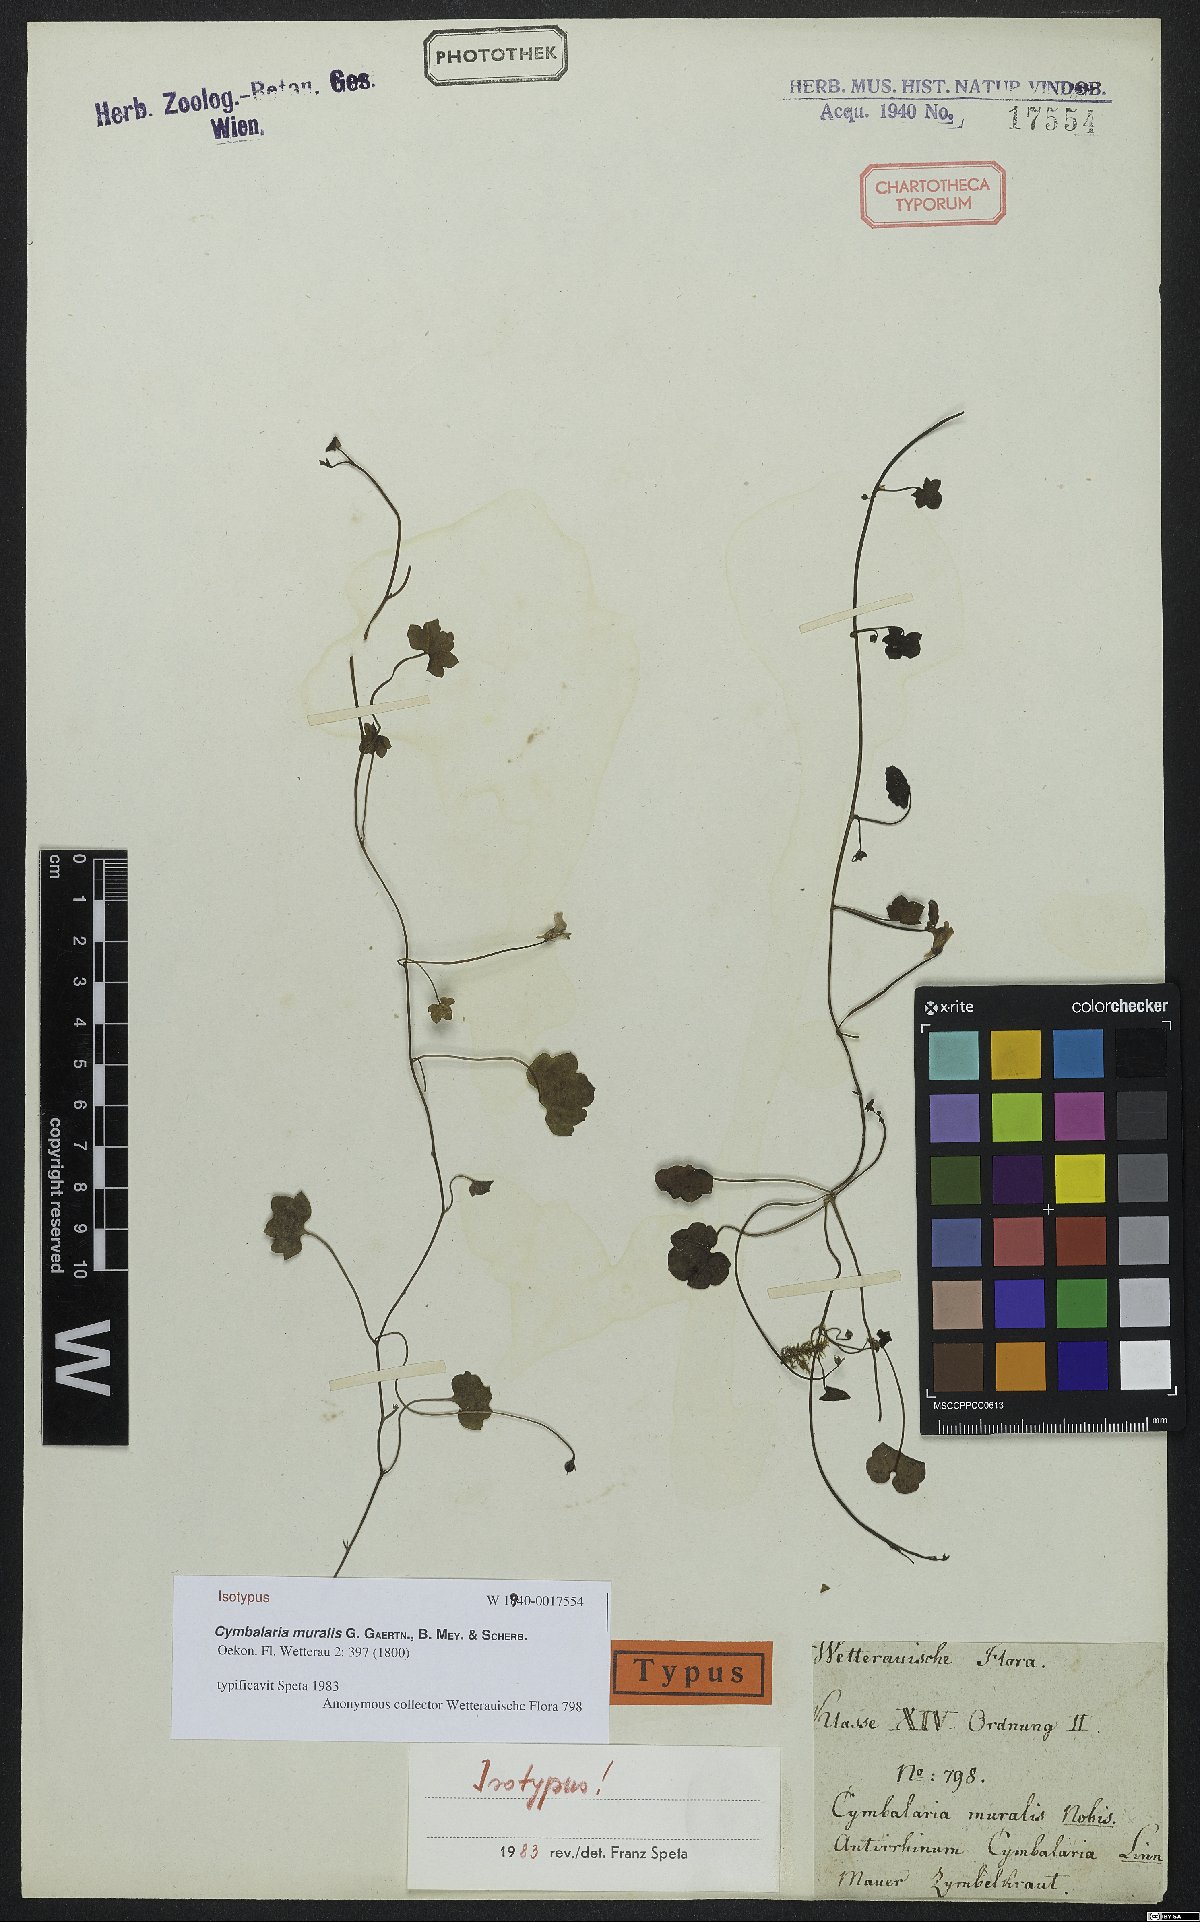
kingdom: Plantae
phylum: Tracheophyta
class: Magnoliopsida
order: Lamiales
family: Plantaginaceae
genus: Cymbalaria
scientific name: Cymbalaria muralis
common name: Ivy-leaved toadflax
